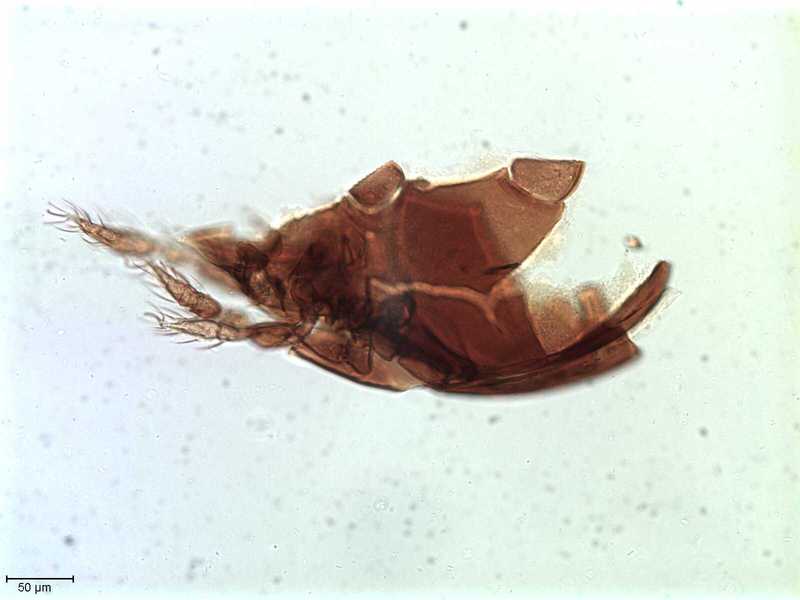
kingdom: Animalia
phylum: Arthropoda
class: Arachnida
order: Sarcoptiformes
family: Tegoribatidae
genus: Plakoribates
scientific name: Plakoribates multicuspidatus
